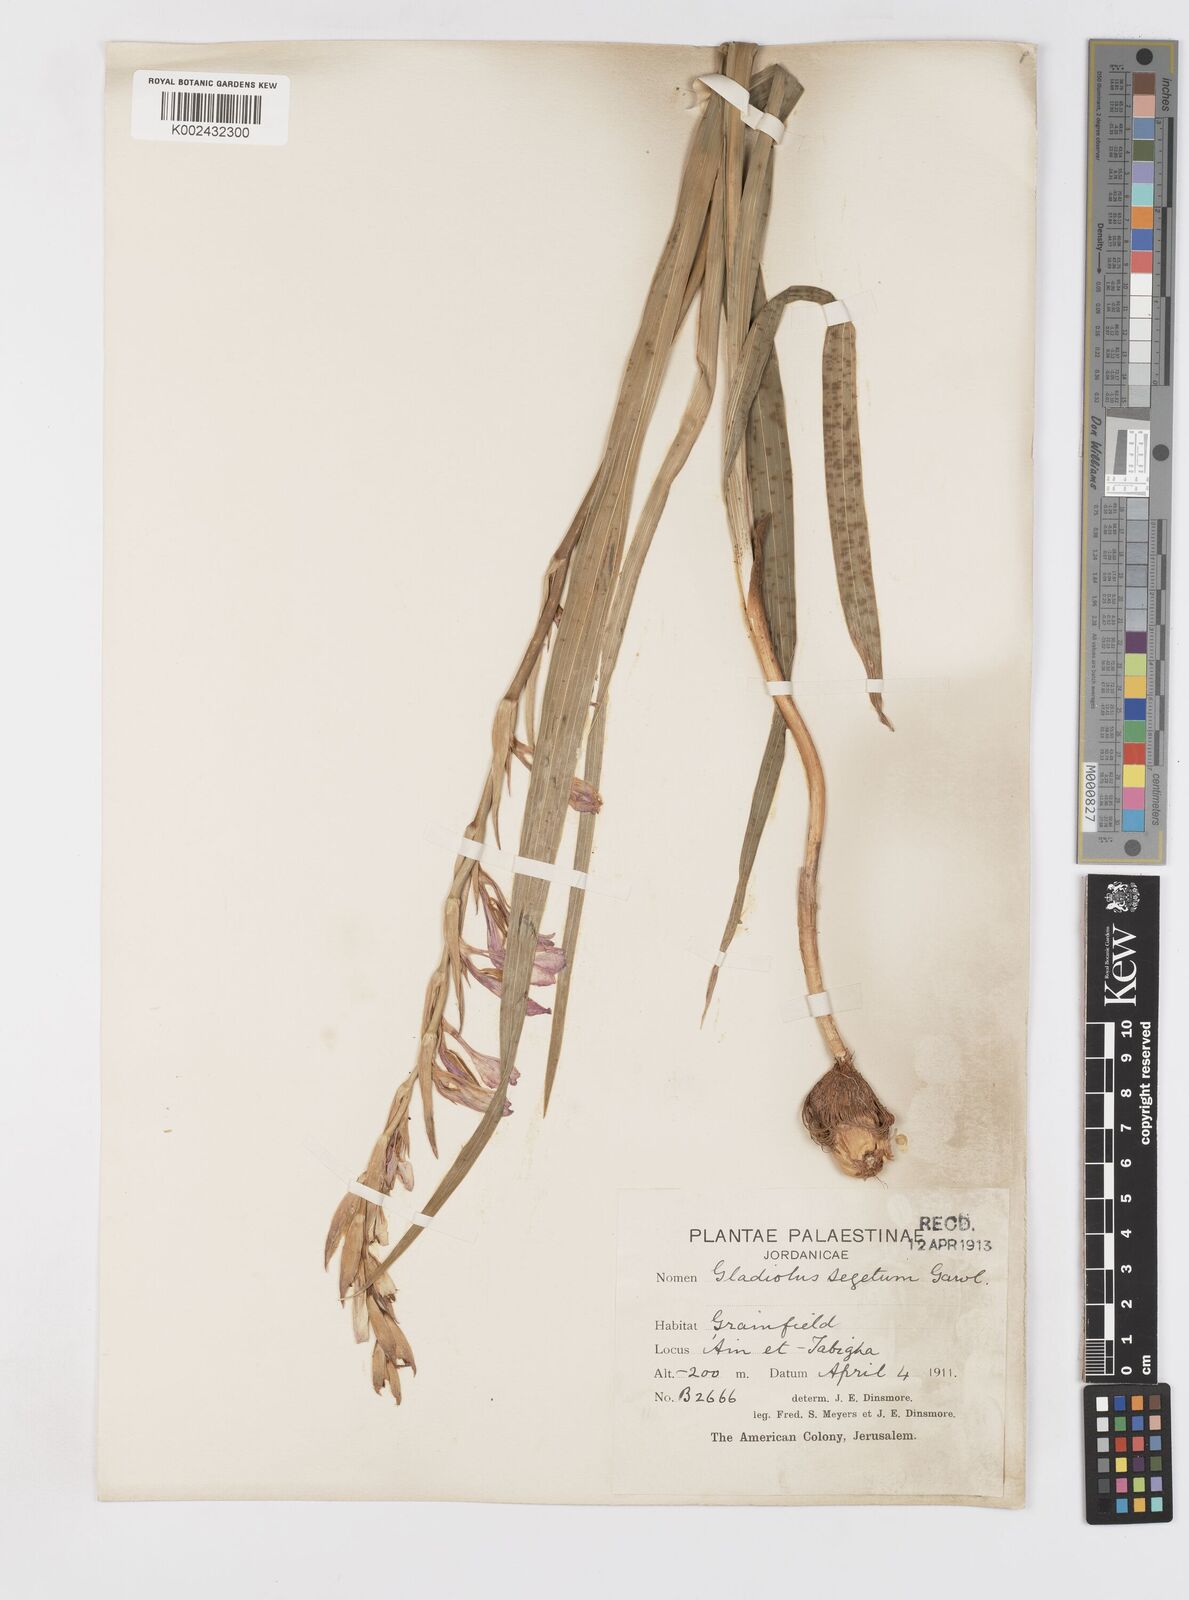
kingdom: Plantae
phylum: Tracheophyta
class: Liliopsida
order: Asparagales
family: Iridaceae
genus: Gladiolus
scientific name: Gladiolus italicus
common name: Field gladiolus
